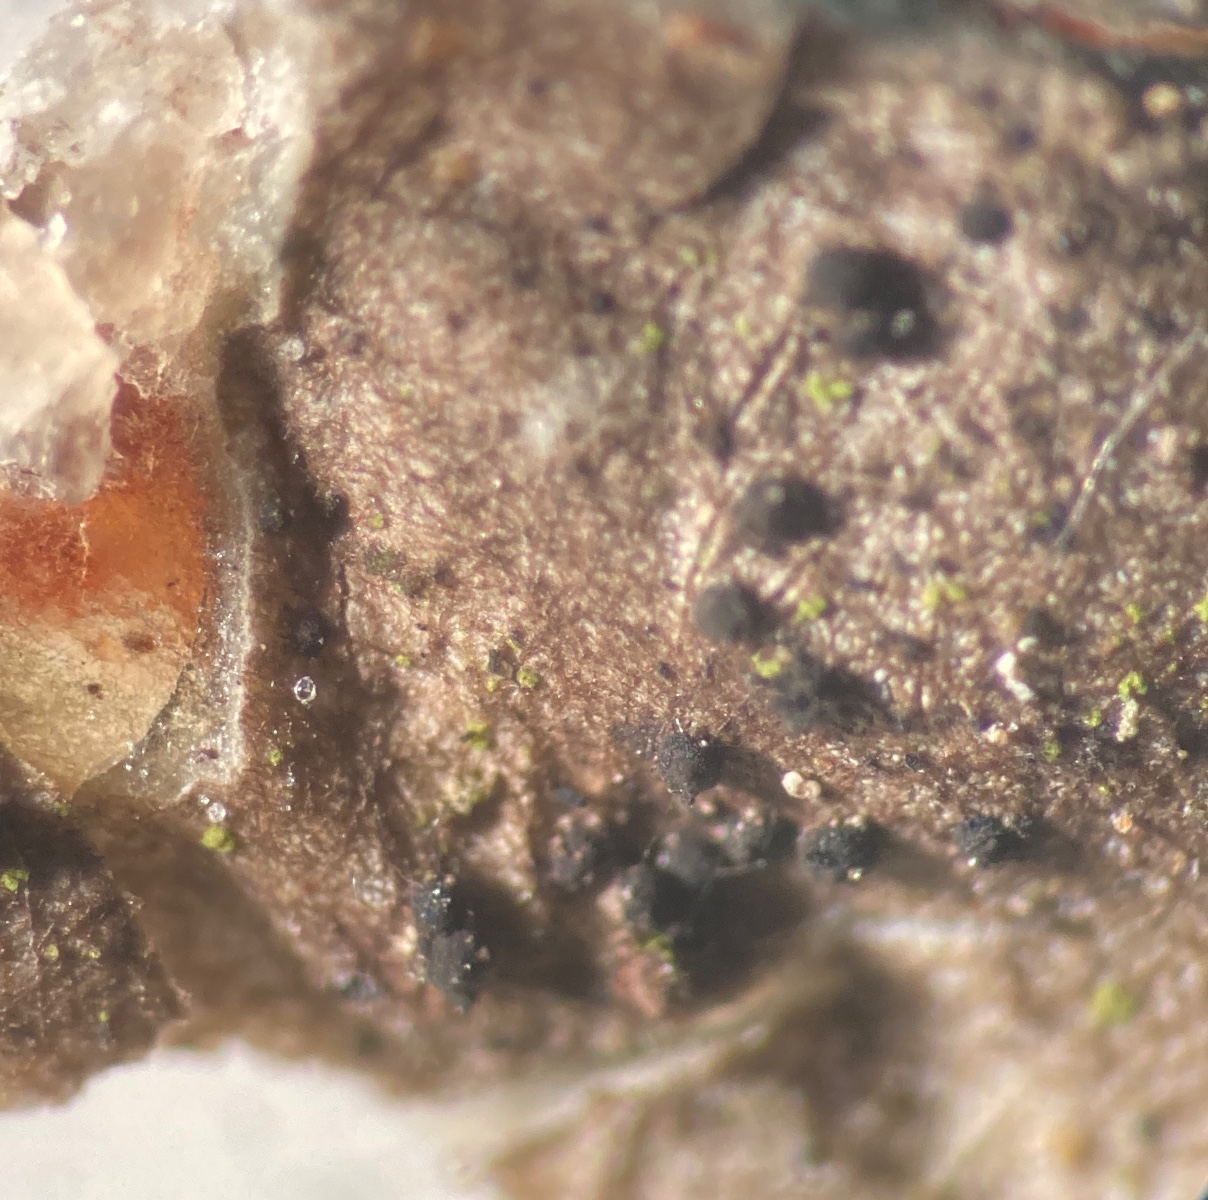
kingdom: Fungi
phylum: Ascomycota
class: Sareomycetes
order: Sareales
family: Sareaceae
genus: Sarea
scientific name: Sarea difformis
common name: mørk harpiksskive
